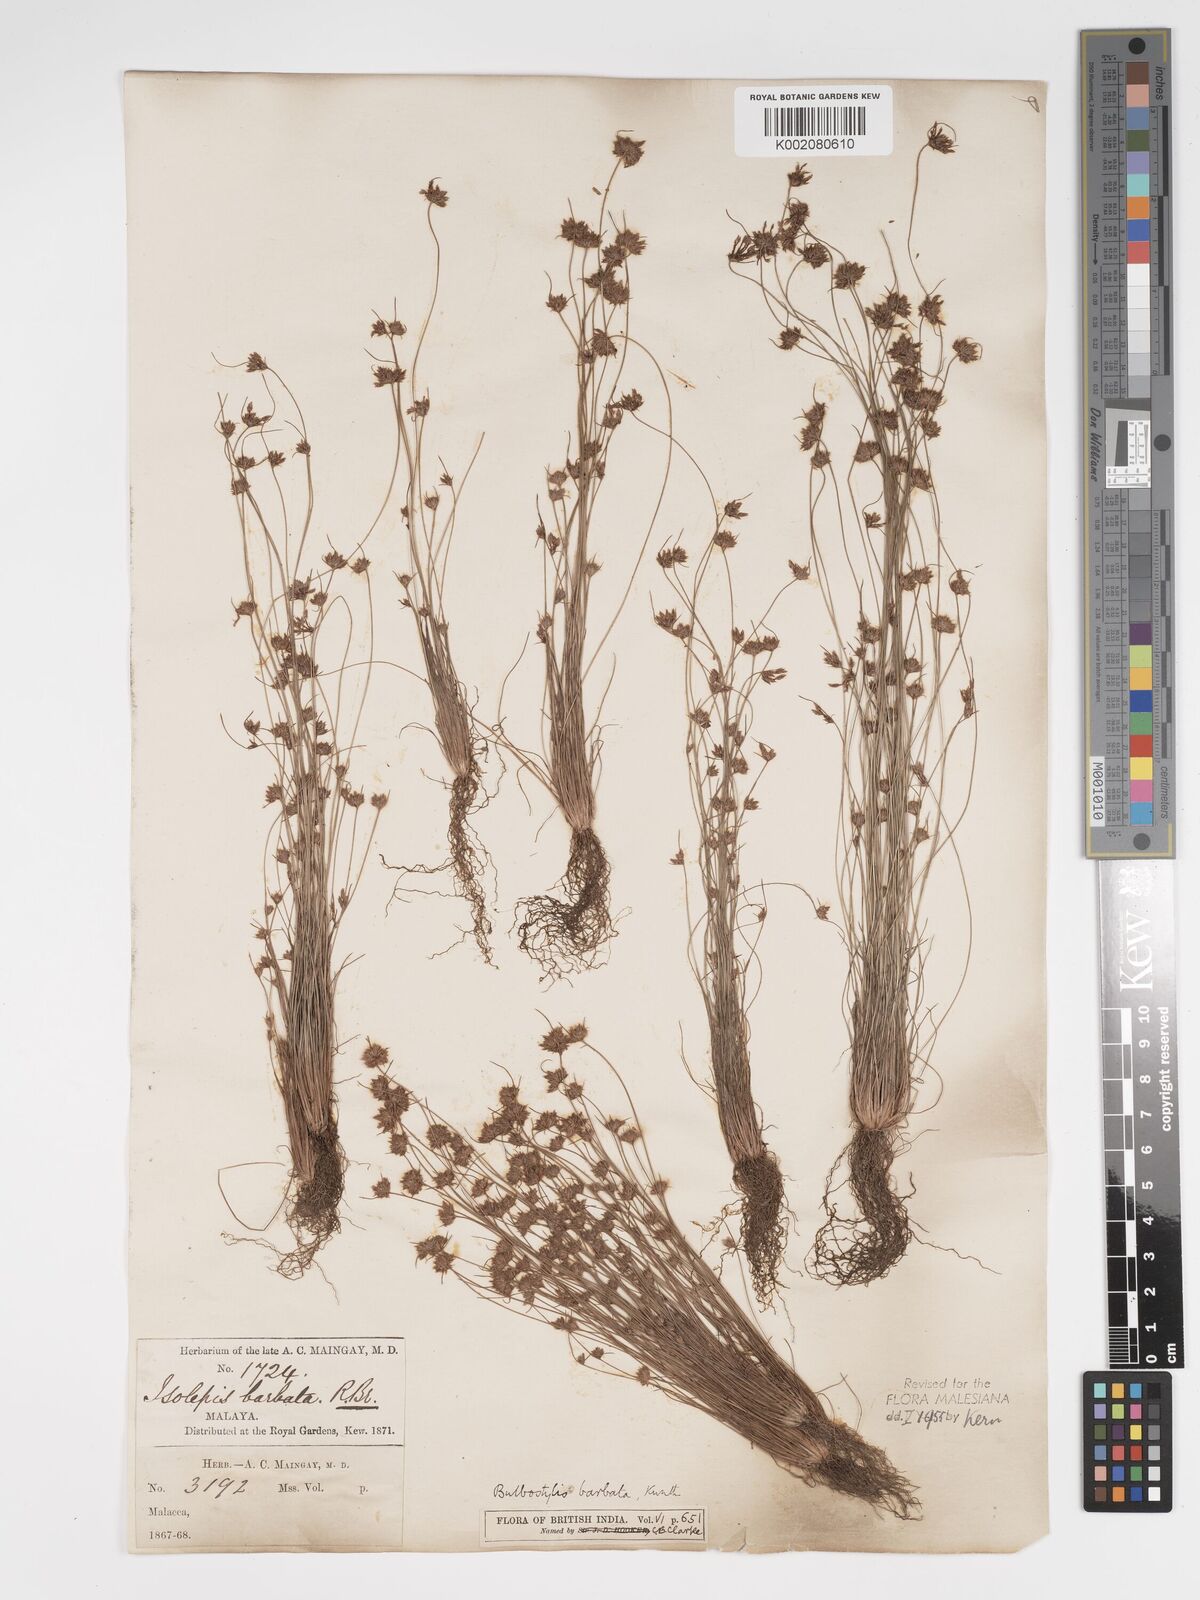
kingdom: Plantae
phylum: Tracheophyta
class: Liliopsida
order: Poales
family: Cyperaceae
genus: Bulbostylis
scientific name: Bulbostylis barbata
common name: Watergrass
